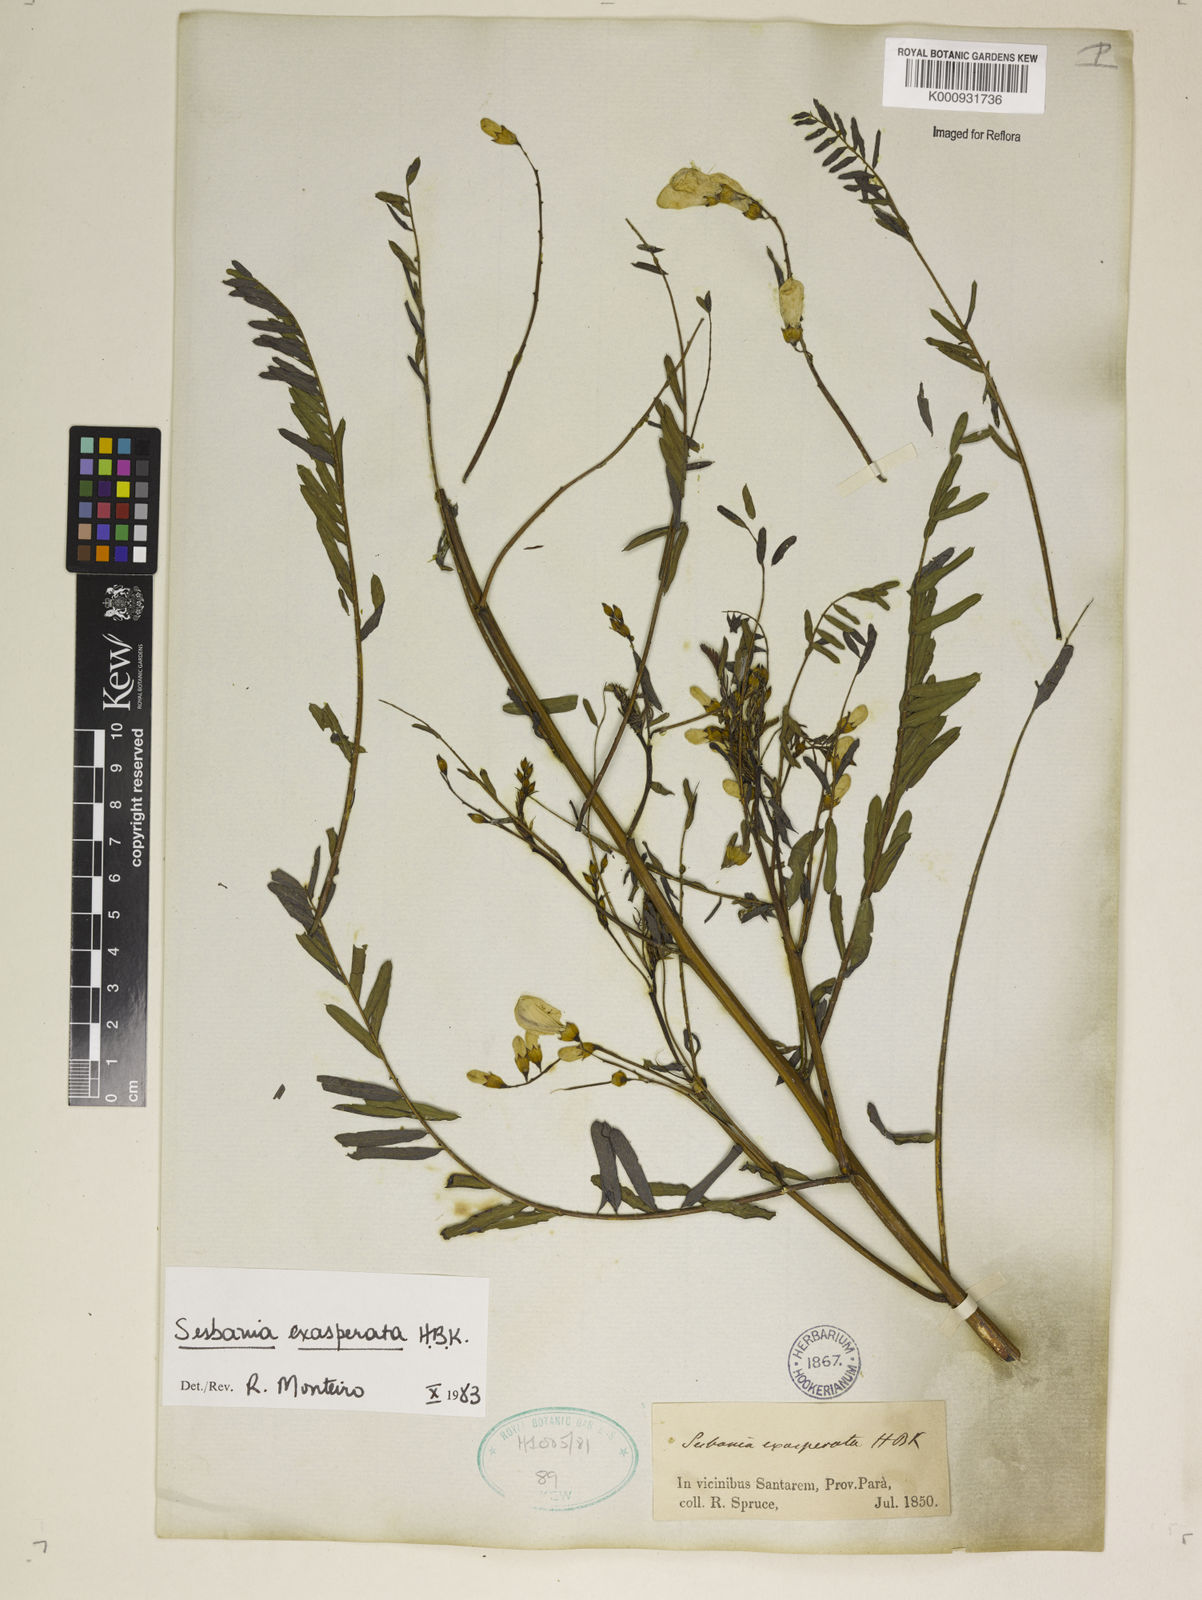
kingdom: Plantae
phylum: Tracheophyta
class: Magnoliopsida
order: Fabales
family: Fabaceae
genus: Sesbania
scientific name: Sesbania exasperata
